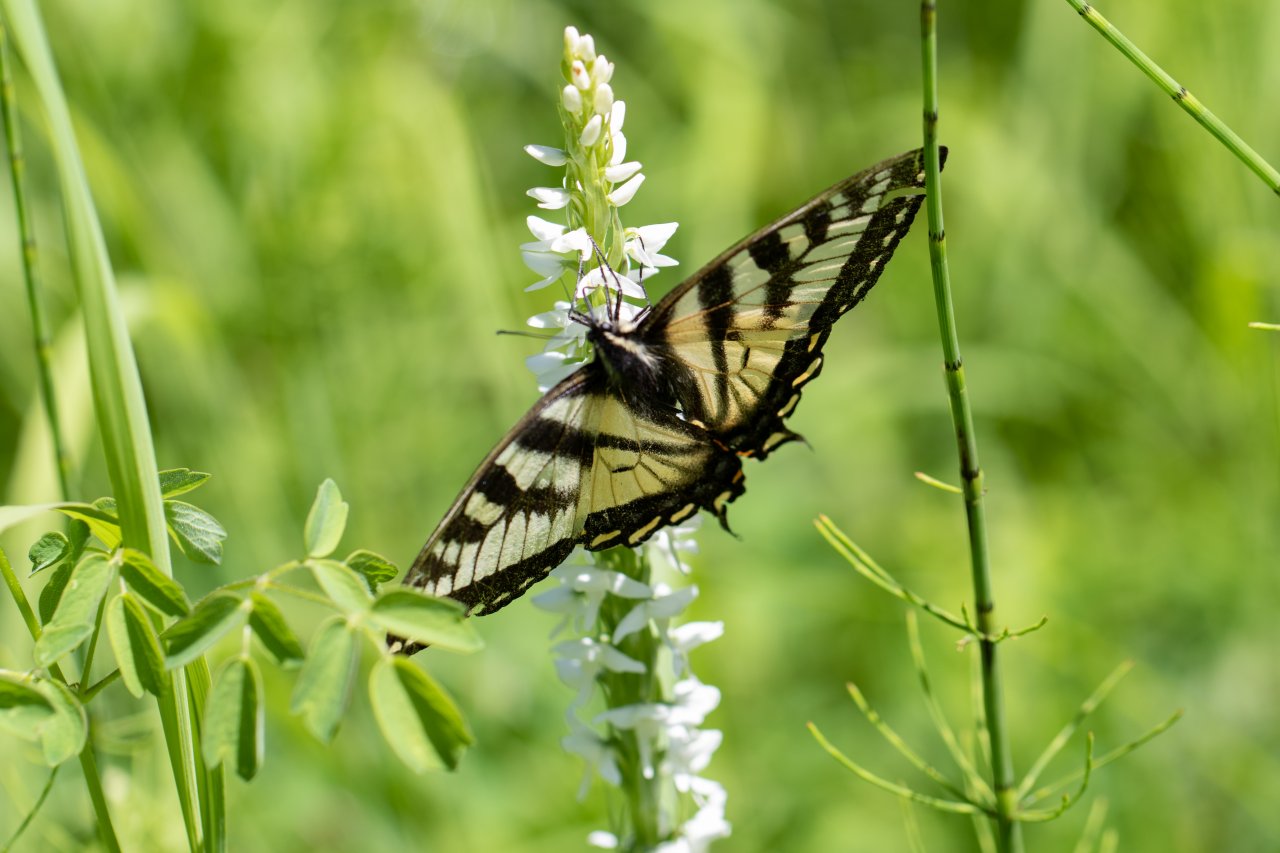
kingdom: Animalia
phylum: Arthropoda
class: Insecta
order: Lepidoptera
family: Papilionidae
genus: Pterourus
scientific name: Pterourus canadensis
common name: Canadian Tiger Swallowtail
